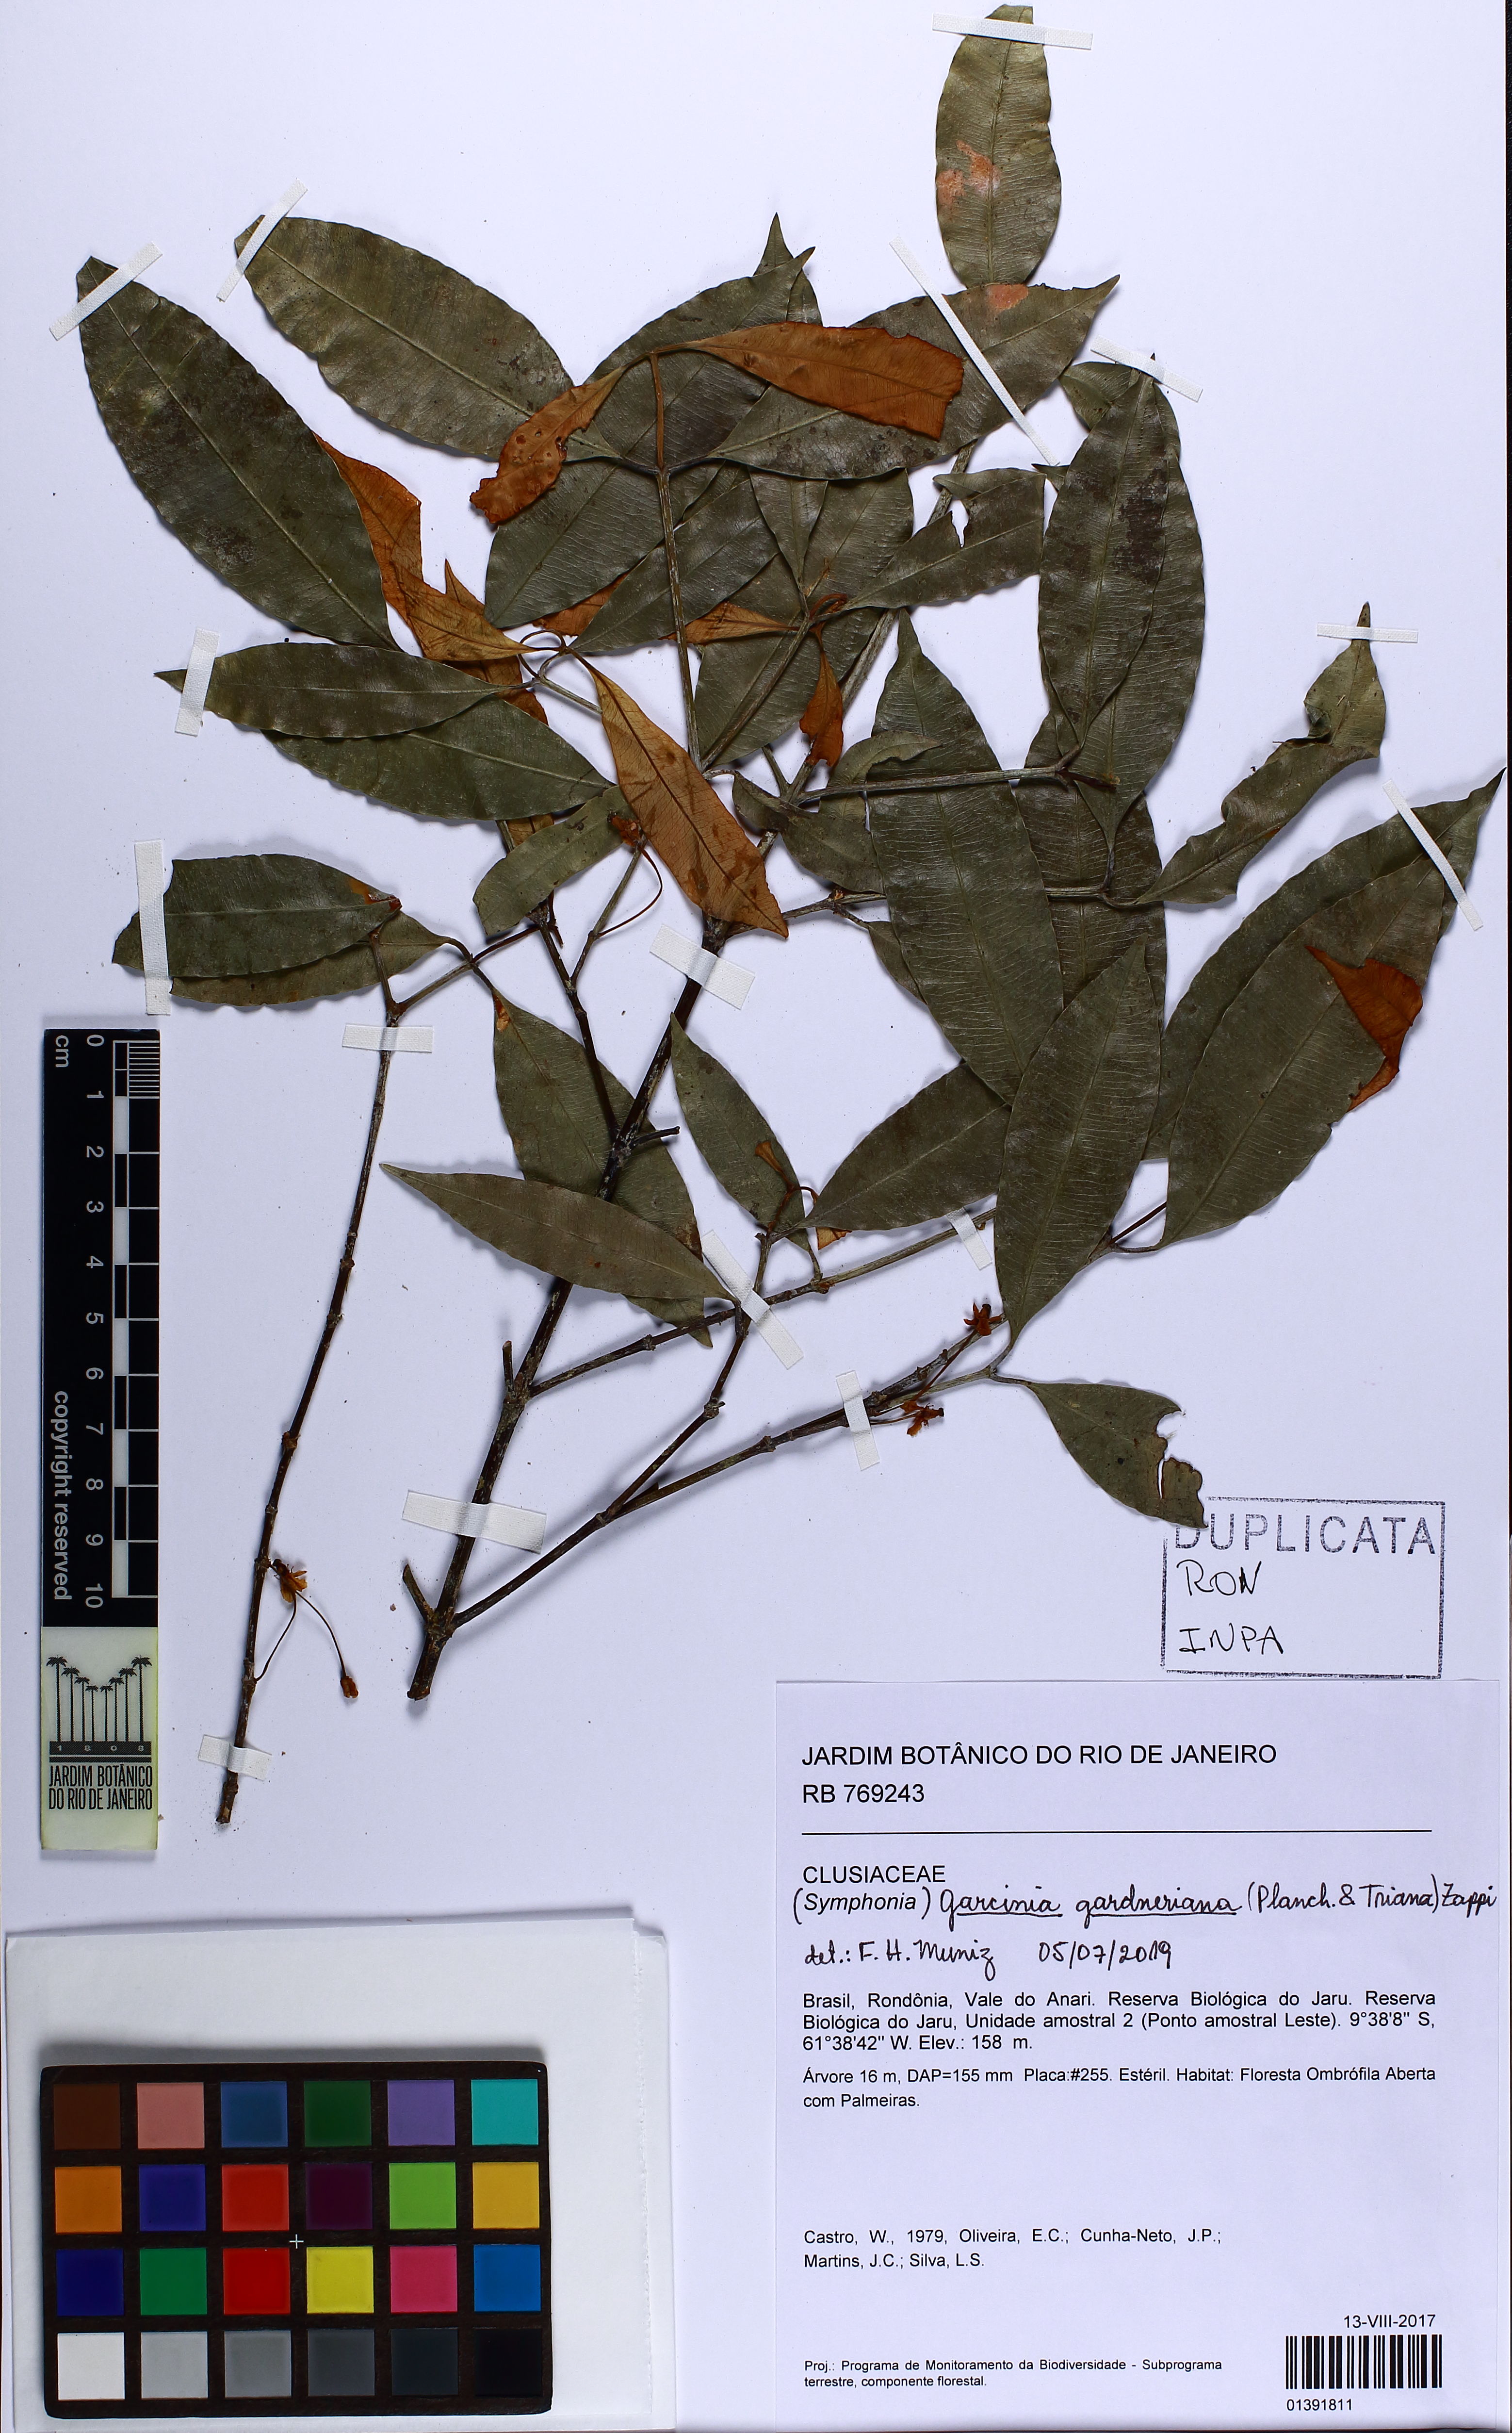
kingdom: Plantae
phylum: Tracheophyta
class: Magnoliopsida
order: Malpighiales
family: Clusiaceae
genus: Garcinia
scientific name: Garcinia
